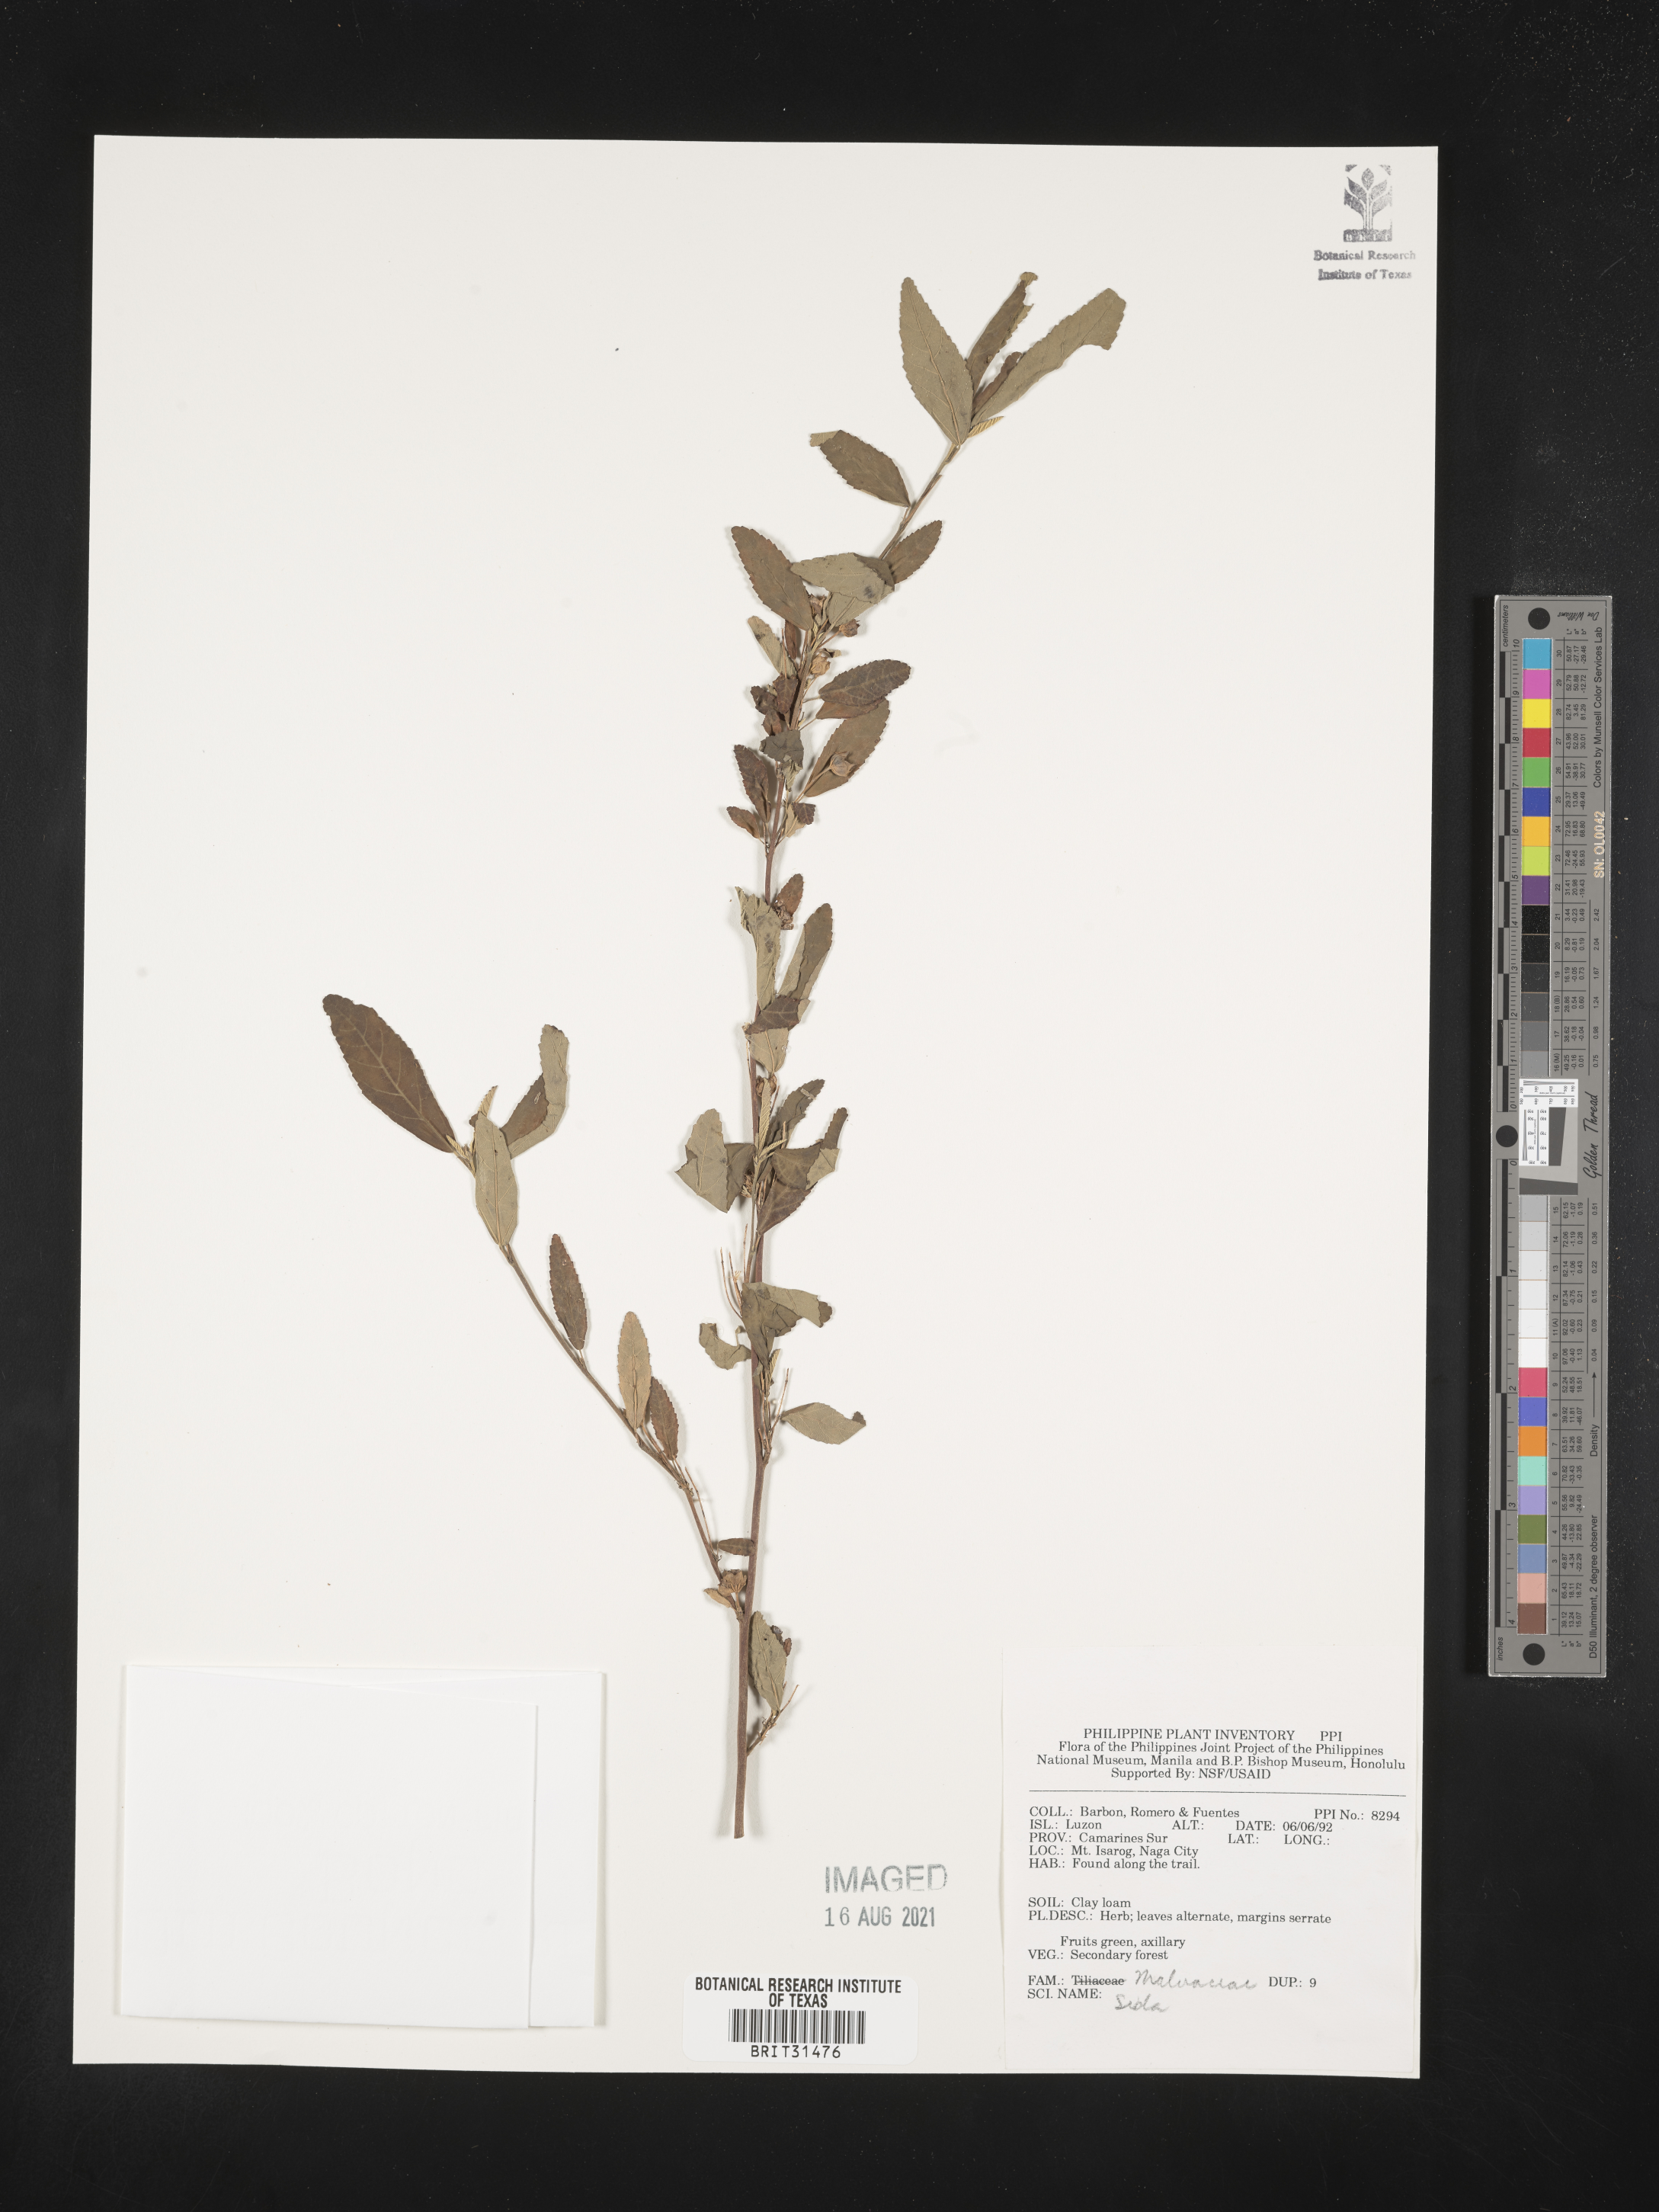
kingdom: Plantae
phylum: Tracheophyta
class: Magnoliopsida
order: Malvales
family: Malvaceae
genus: Sida
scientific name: Sida
